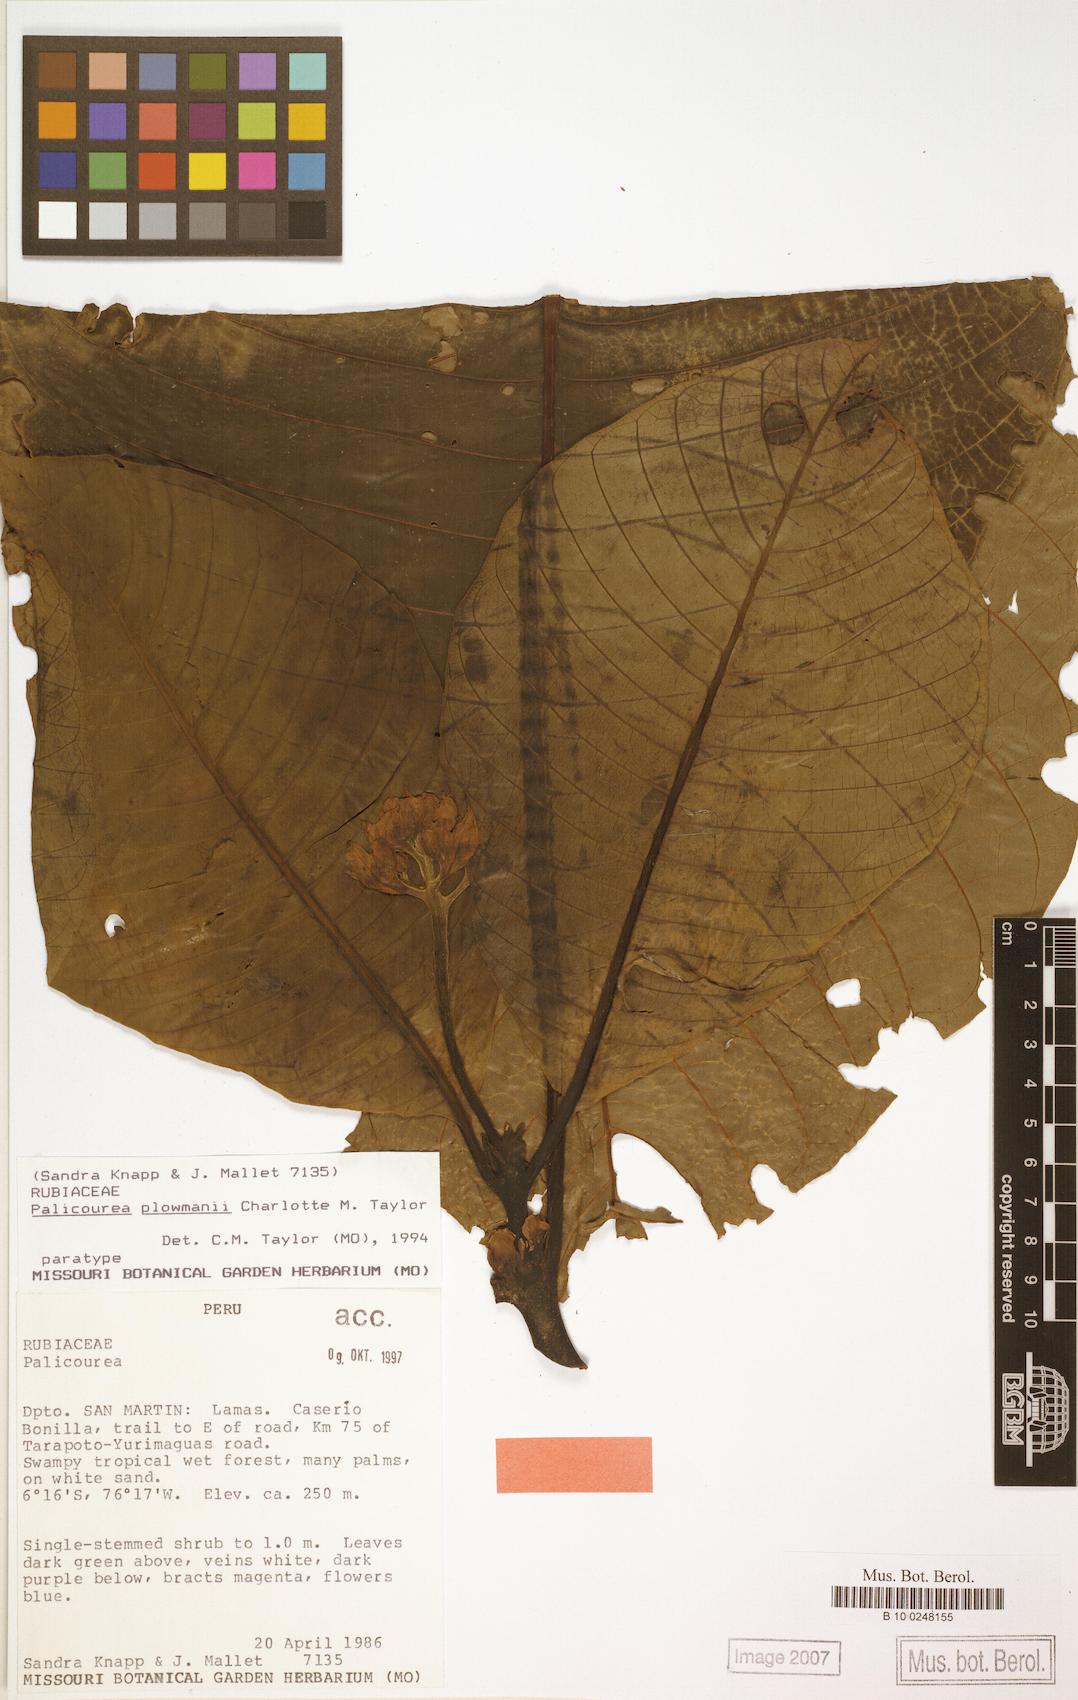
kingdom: Plantae
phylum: Tracheophyta
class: Magnoliopsida
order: Gentianales
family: Rubiaceae
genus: Palicourea
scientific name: Palicourea paulina
